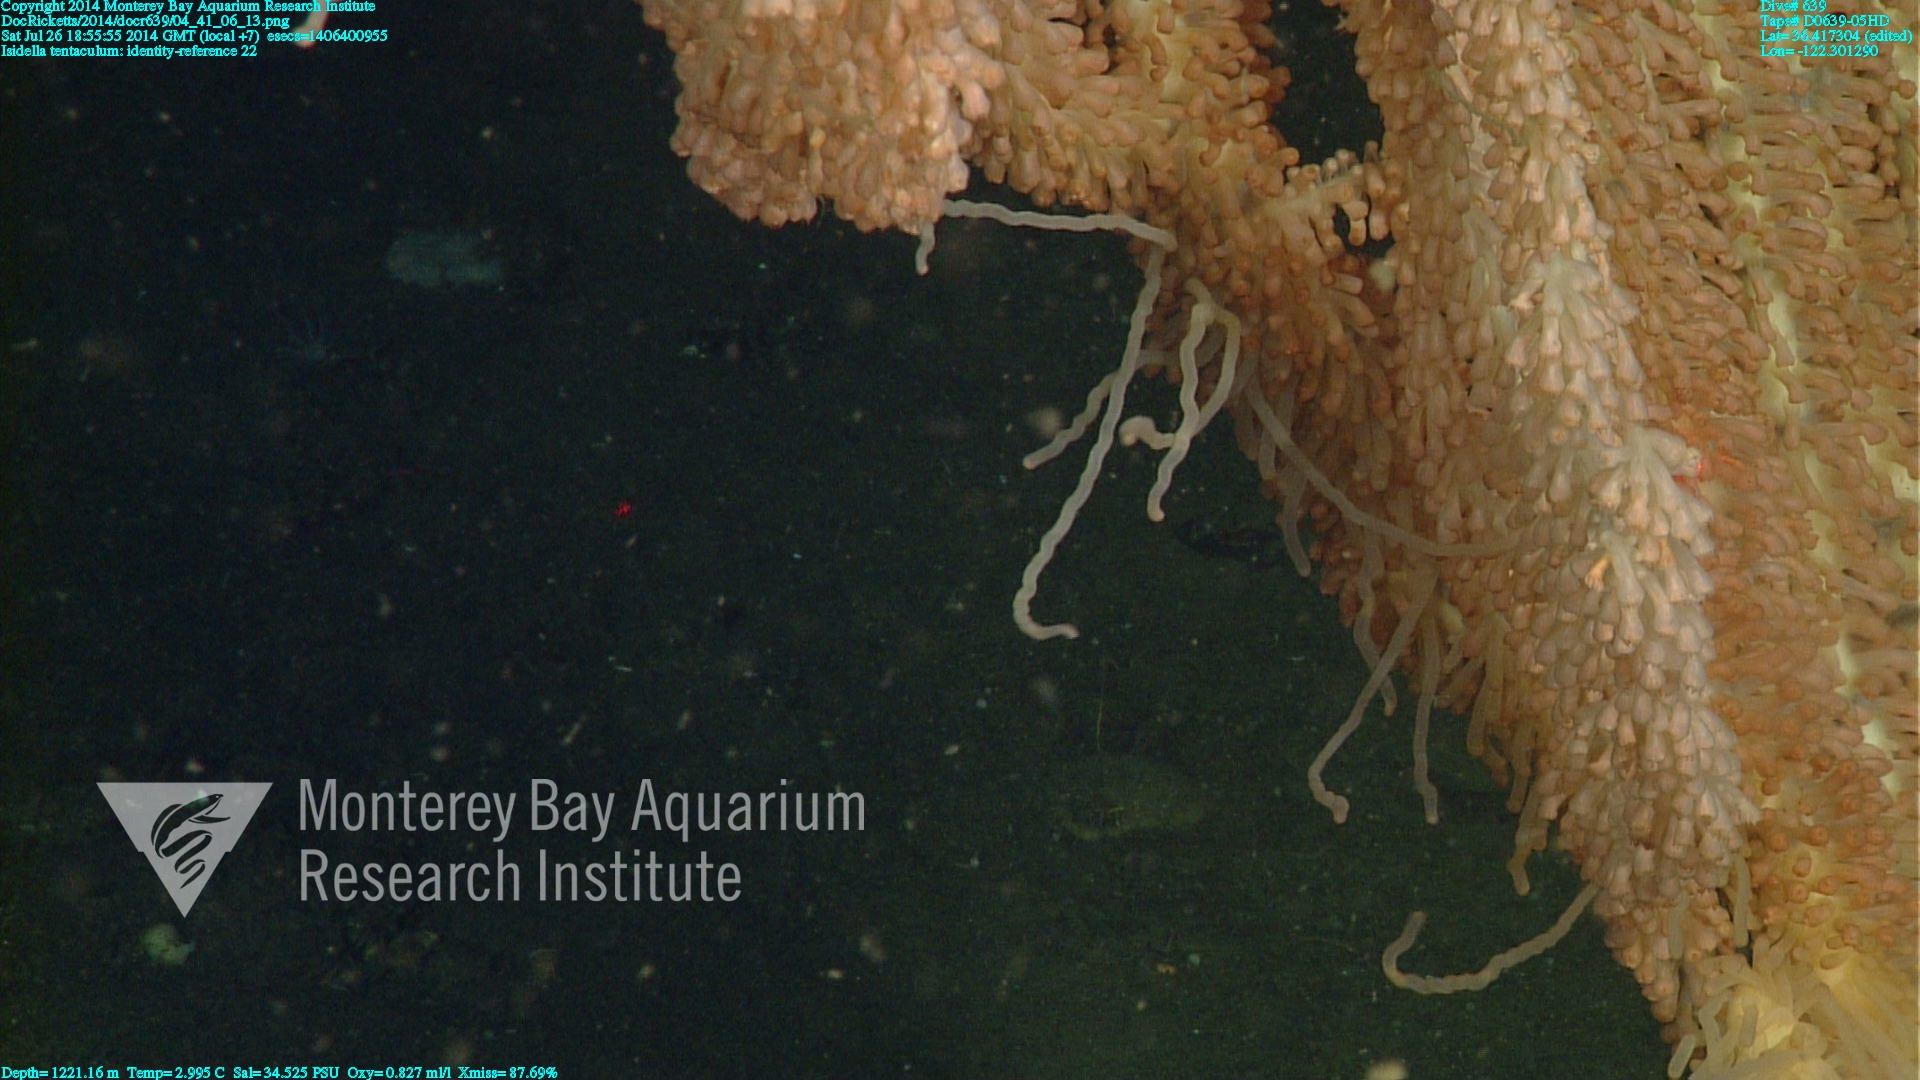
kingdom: Animalia
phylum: Cnidaria
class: Anthozoa
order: Scleralcyonacea
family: Keratoisididae
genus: Isidella
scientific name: Isidella tentaculum
